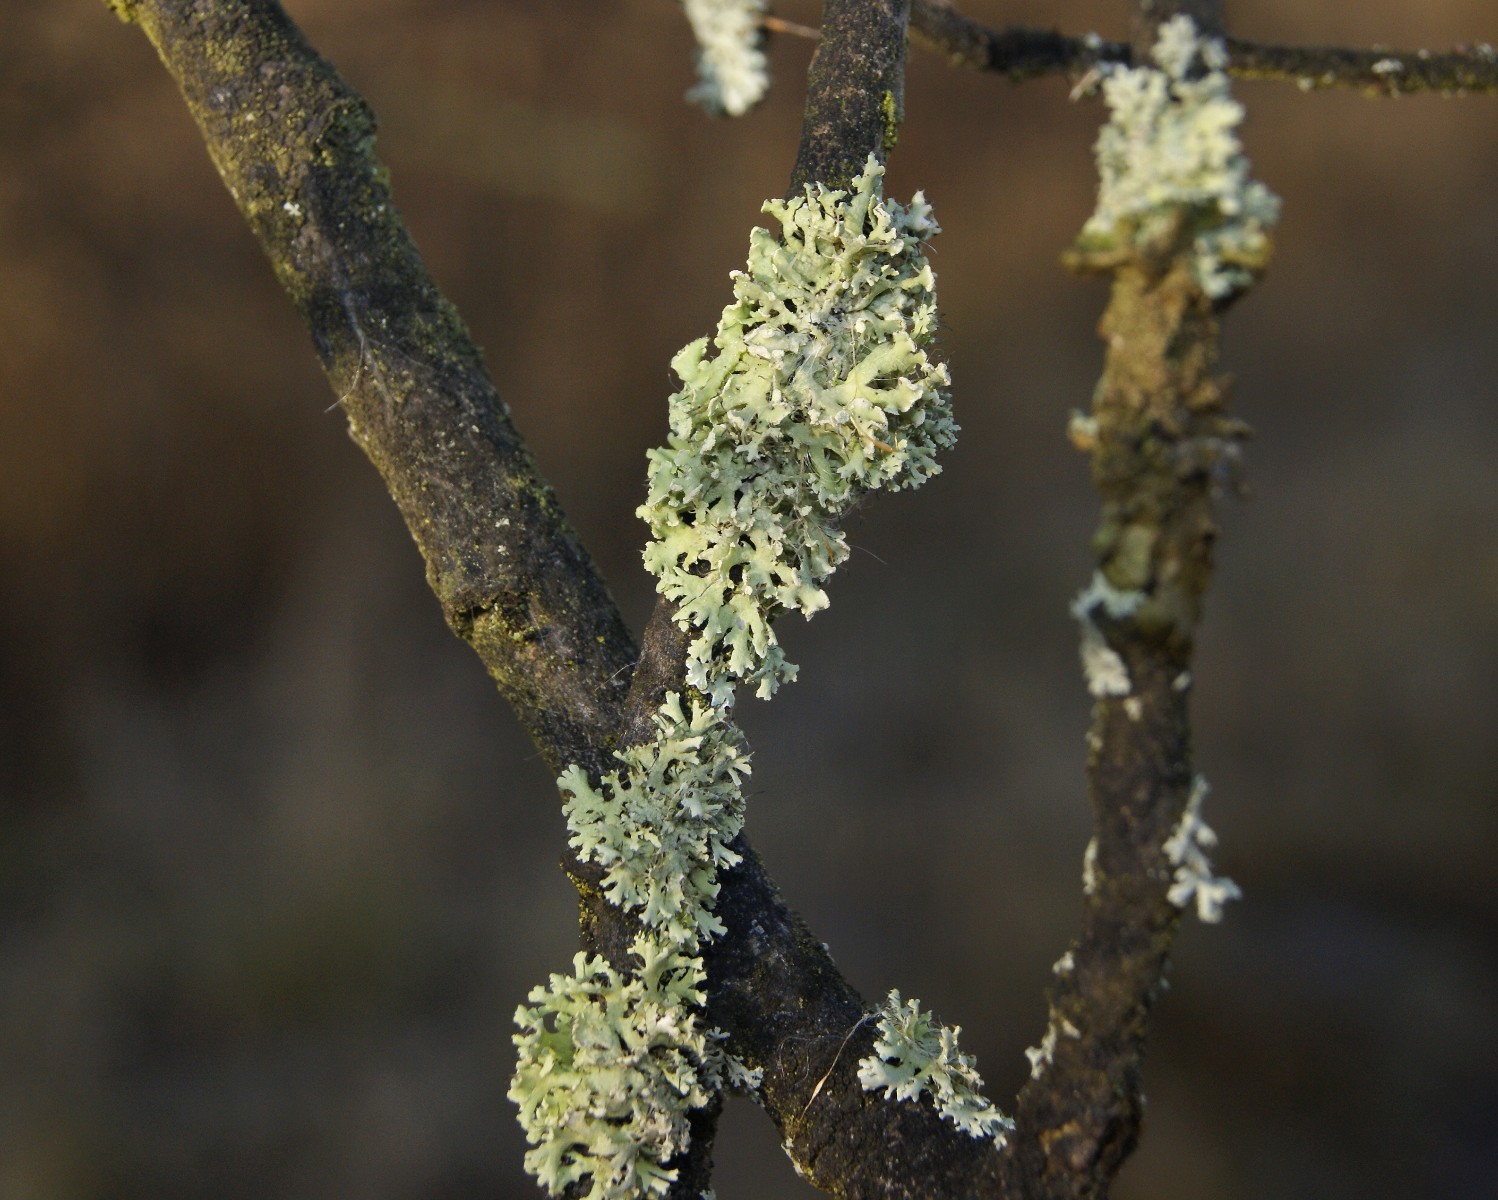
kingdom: Fungi
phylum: Ascomycota
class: Lecanoromycetes
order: Caliciales
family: Physciaceae
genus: Physcia
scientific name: Physcia tenella
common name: spæd rosetlav
